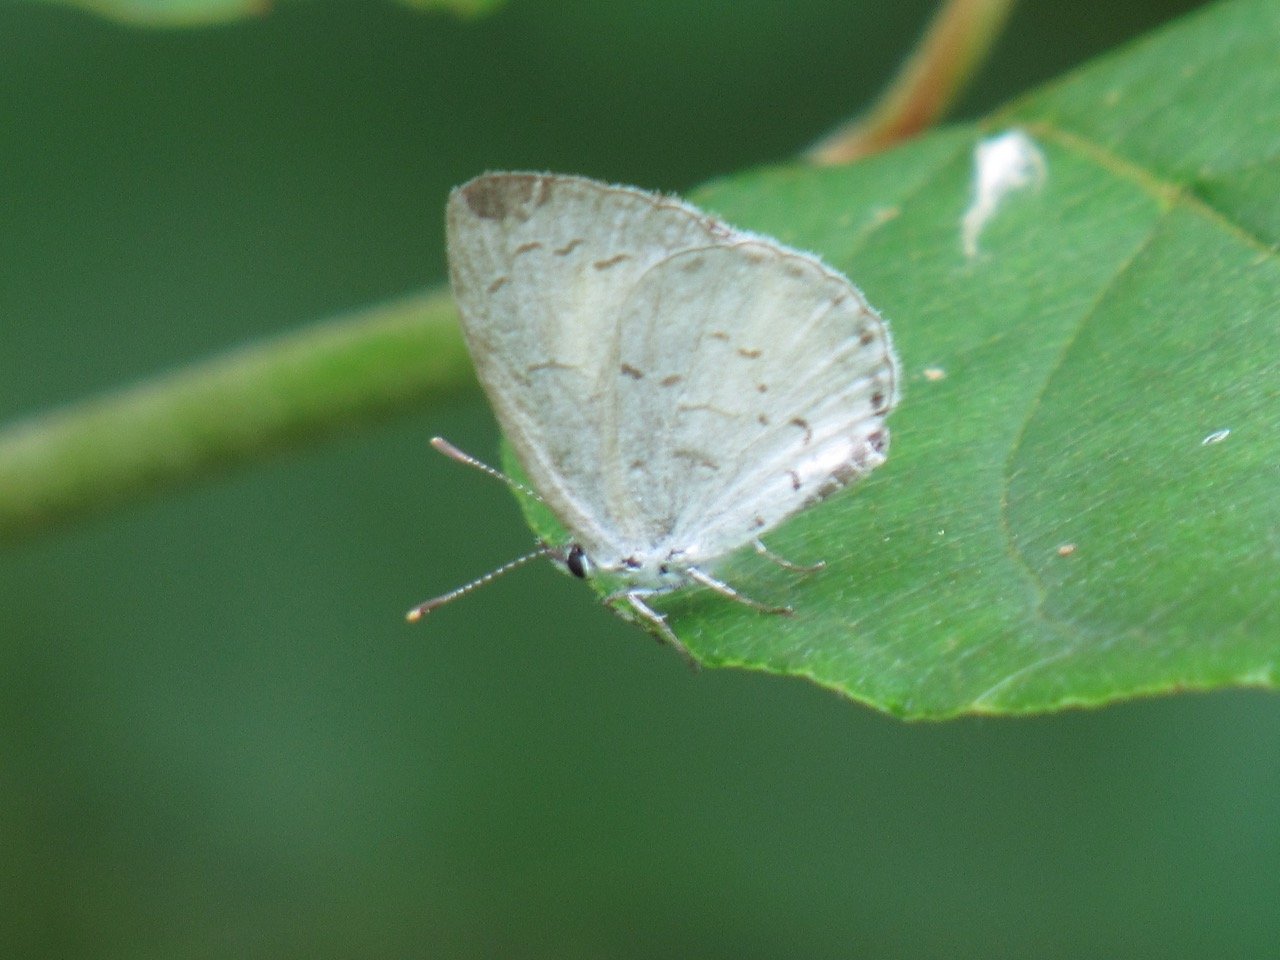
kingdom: Animalia
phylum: Arthropoda
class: Insecta
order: Lepidoptera
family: Lycaenidae
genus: Celastrina
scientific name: Celastrina
